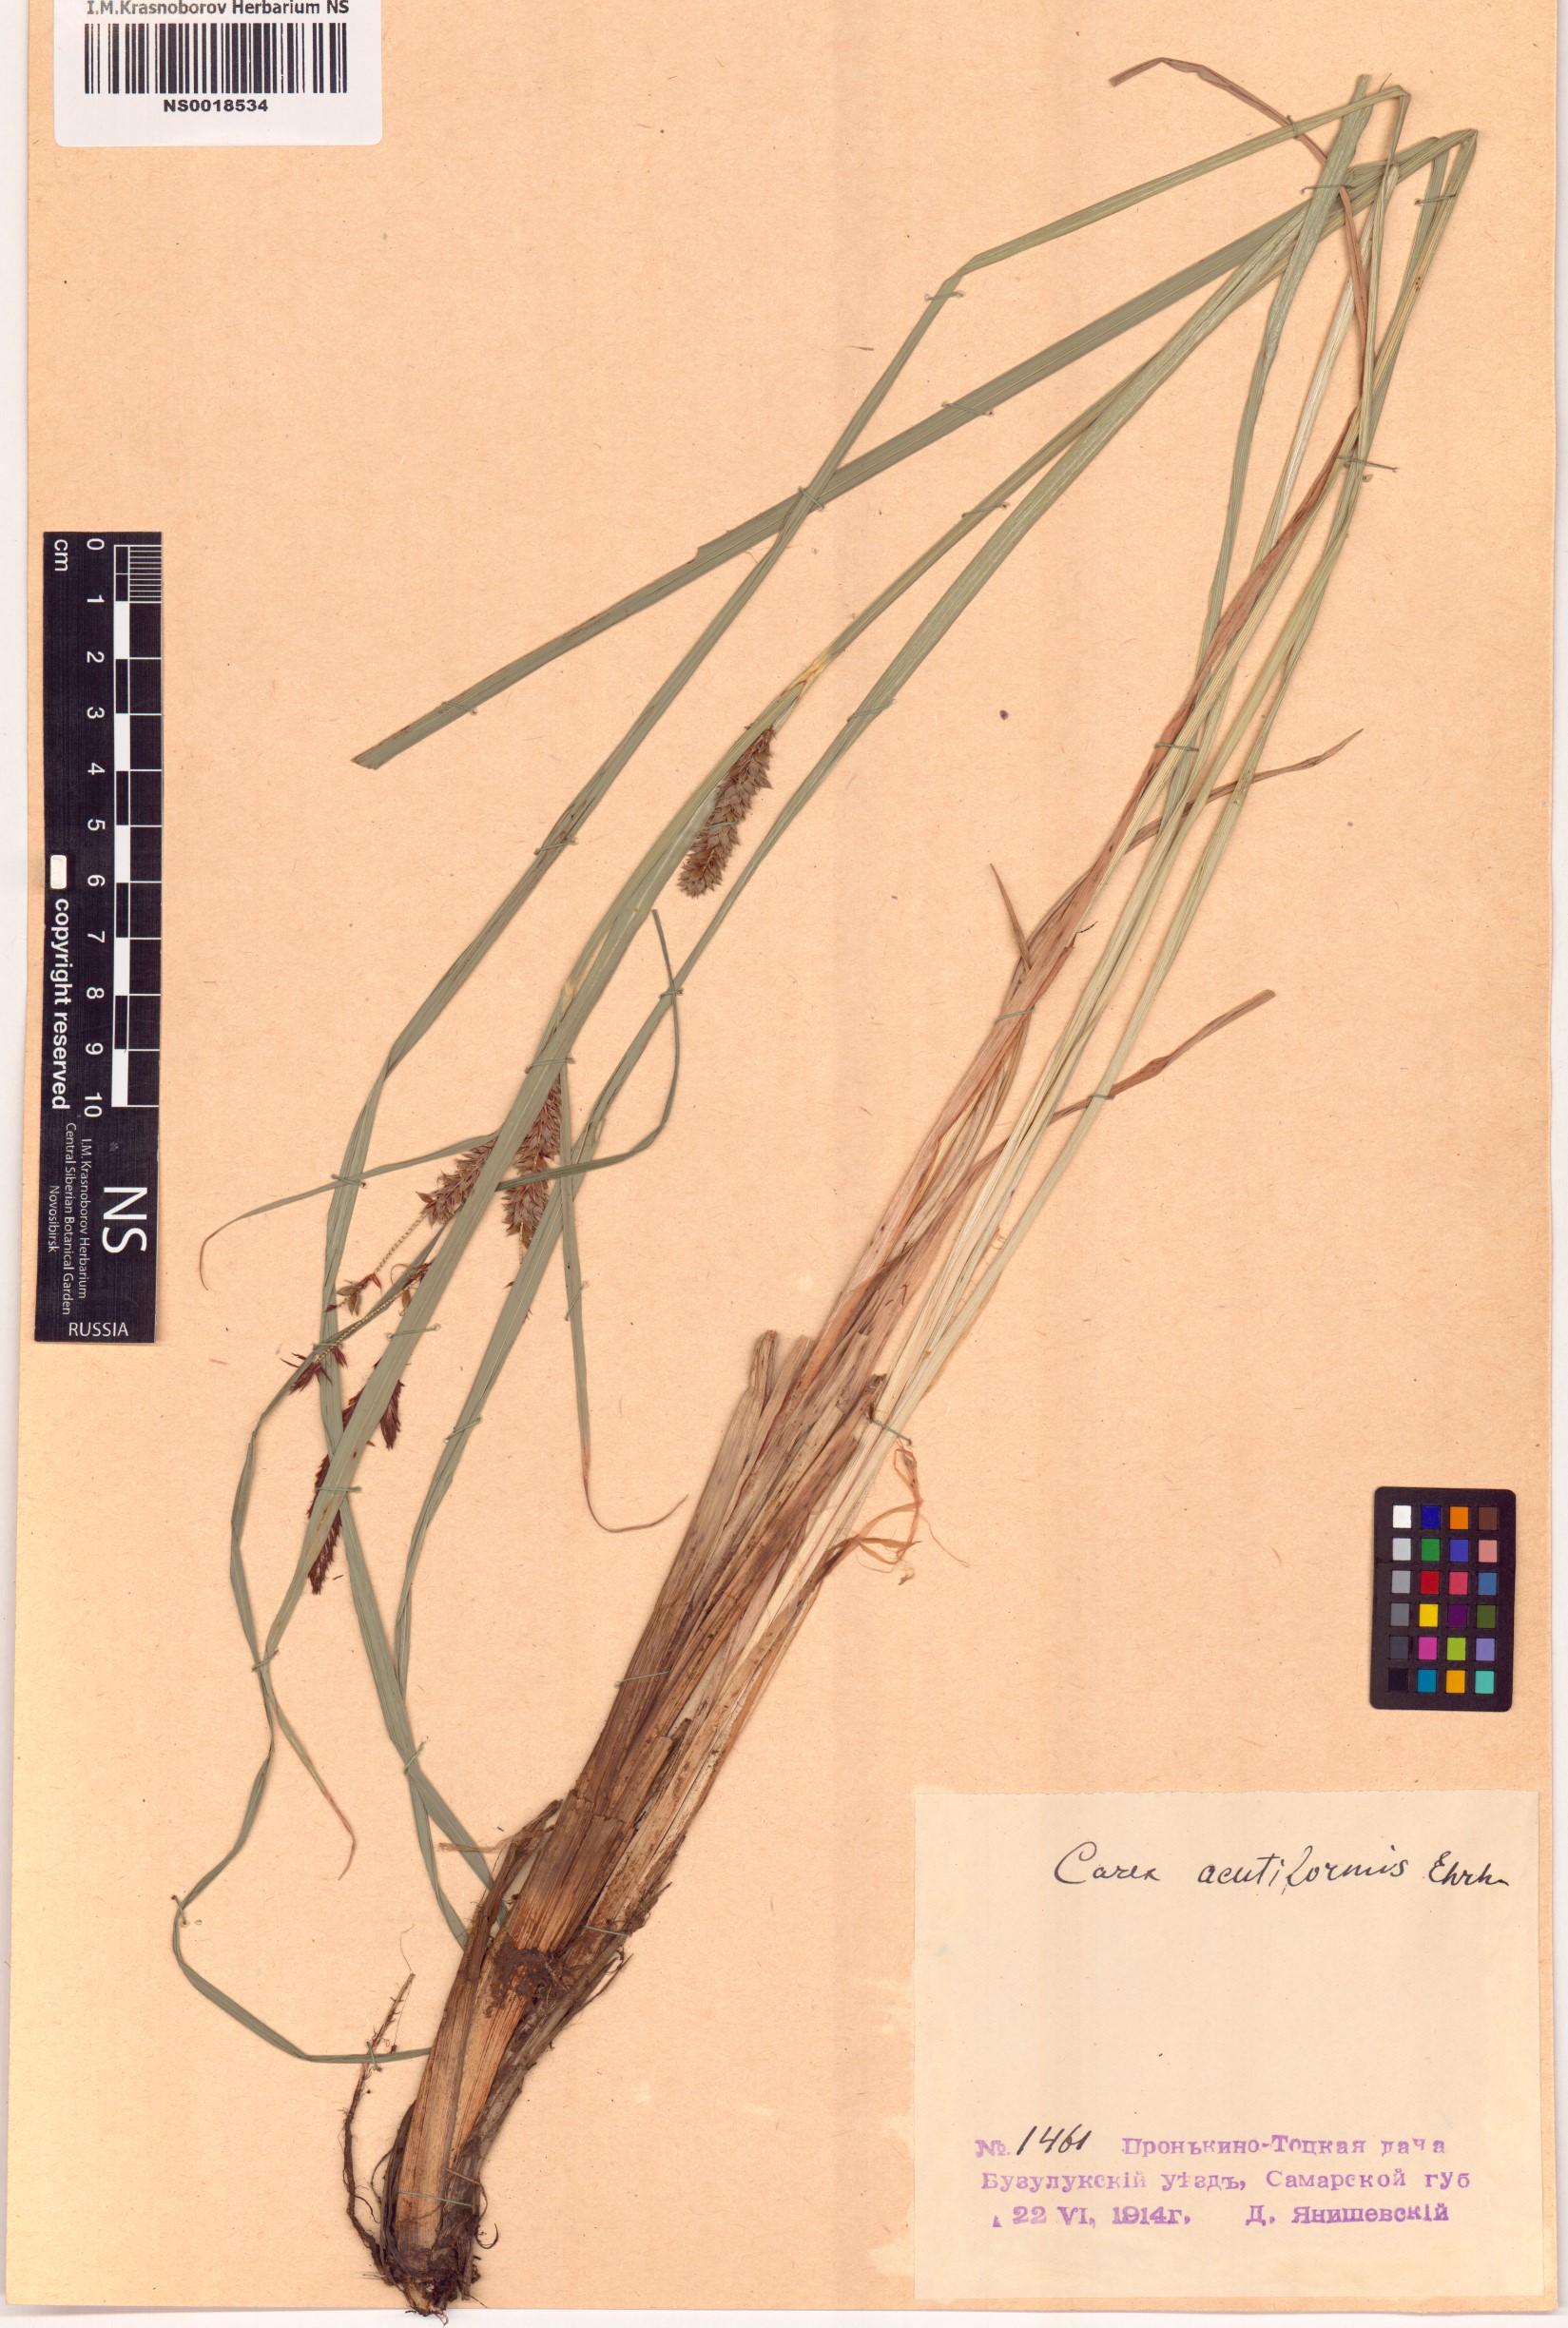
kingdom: Plantae
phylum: Tracheophyta
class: Liliopsida
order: Poales
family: Cyperaceae
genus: Carex
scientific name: Carex acutiformis
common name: Lesser pond-sedge
